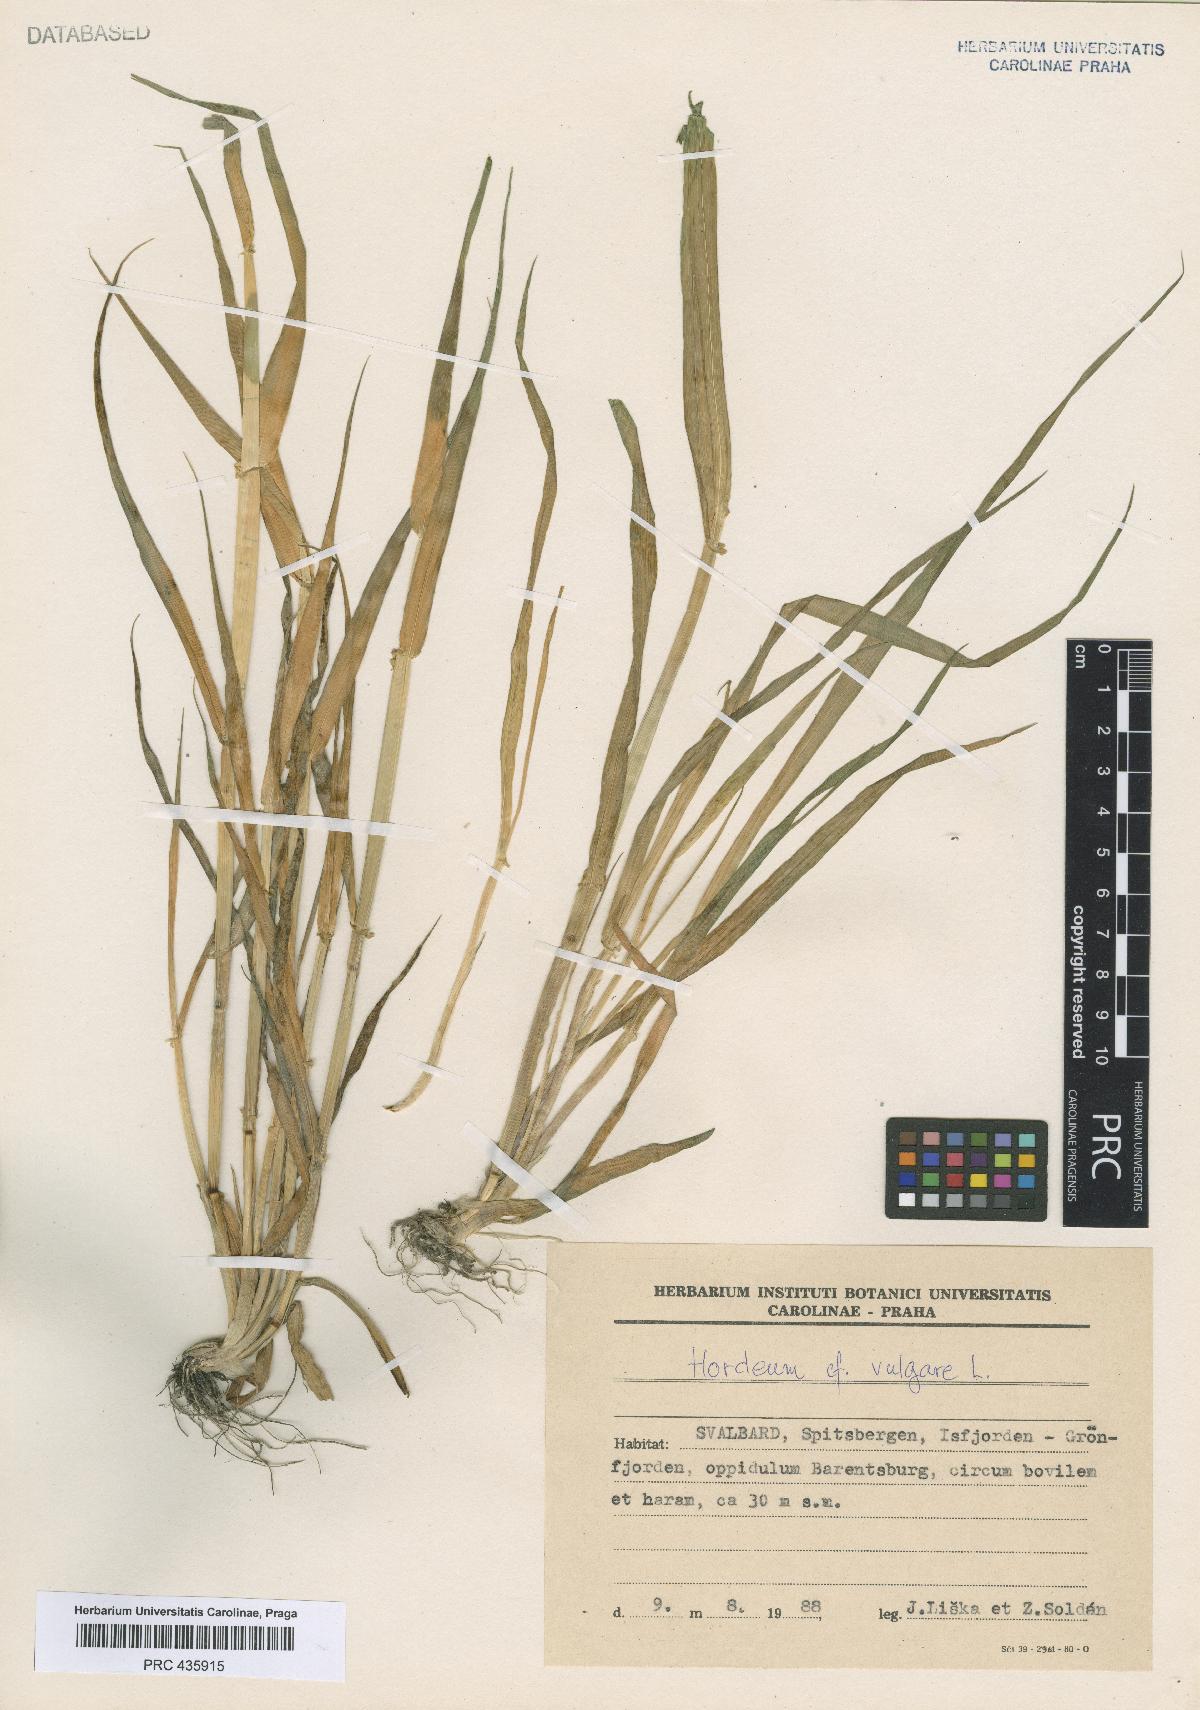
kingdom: Plantae
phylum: Tracheophyta
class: Liliopsida
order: Poales
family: Poaceae
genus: Hordeum
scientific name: Hordeum vulgare
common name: Common barley
